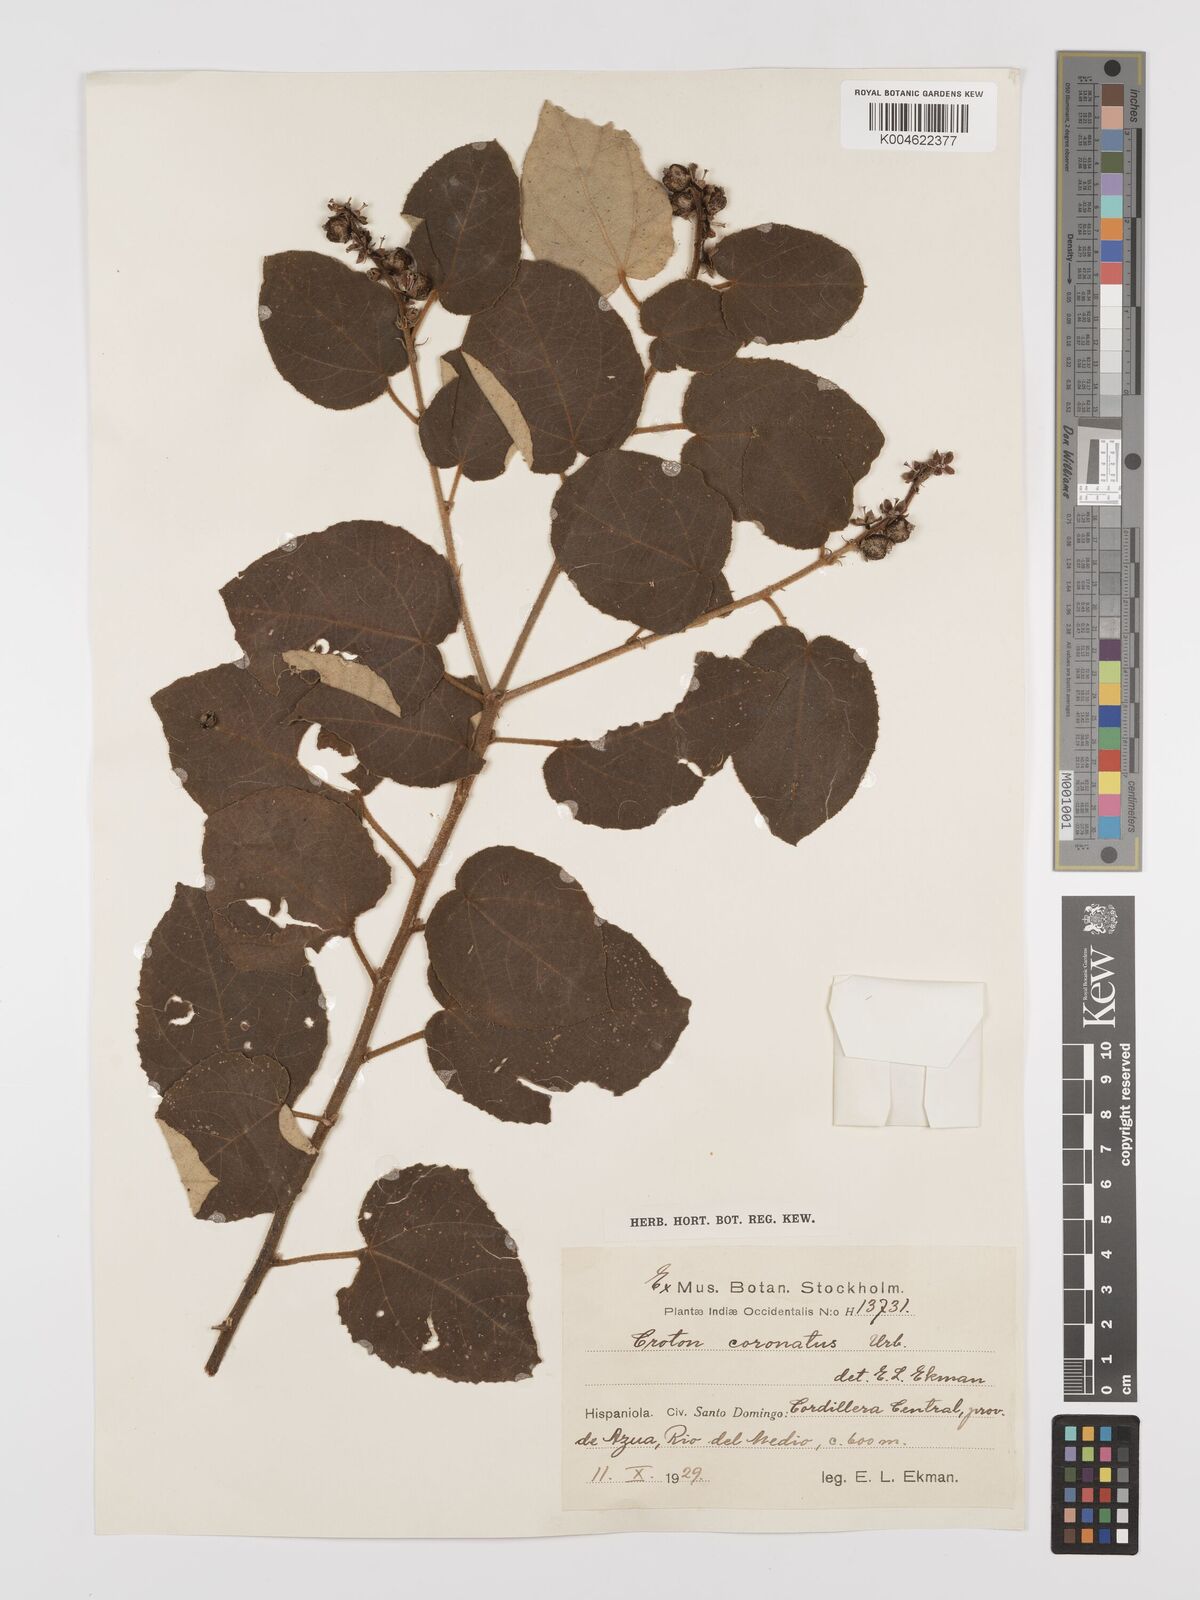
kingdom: Plantae
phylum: Tracheophyta
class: Magnoliopsida
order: Malpighiales
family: Euphorbiaceae
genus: Croton
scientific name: Croton coronatus
